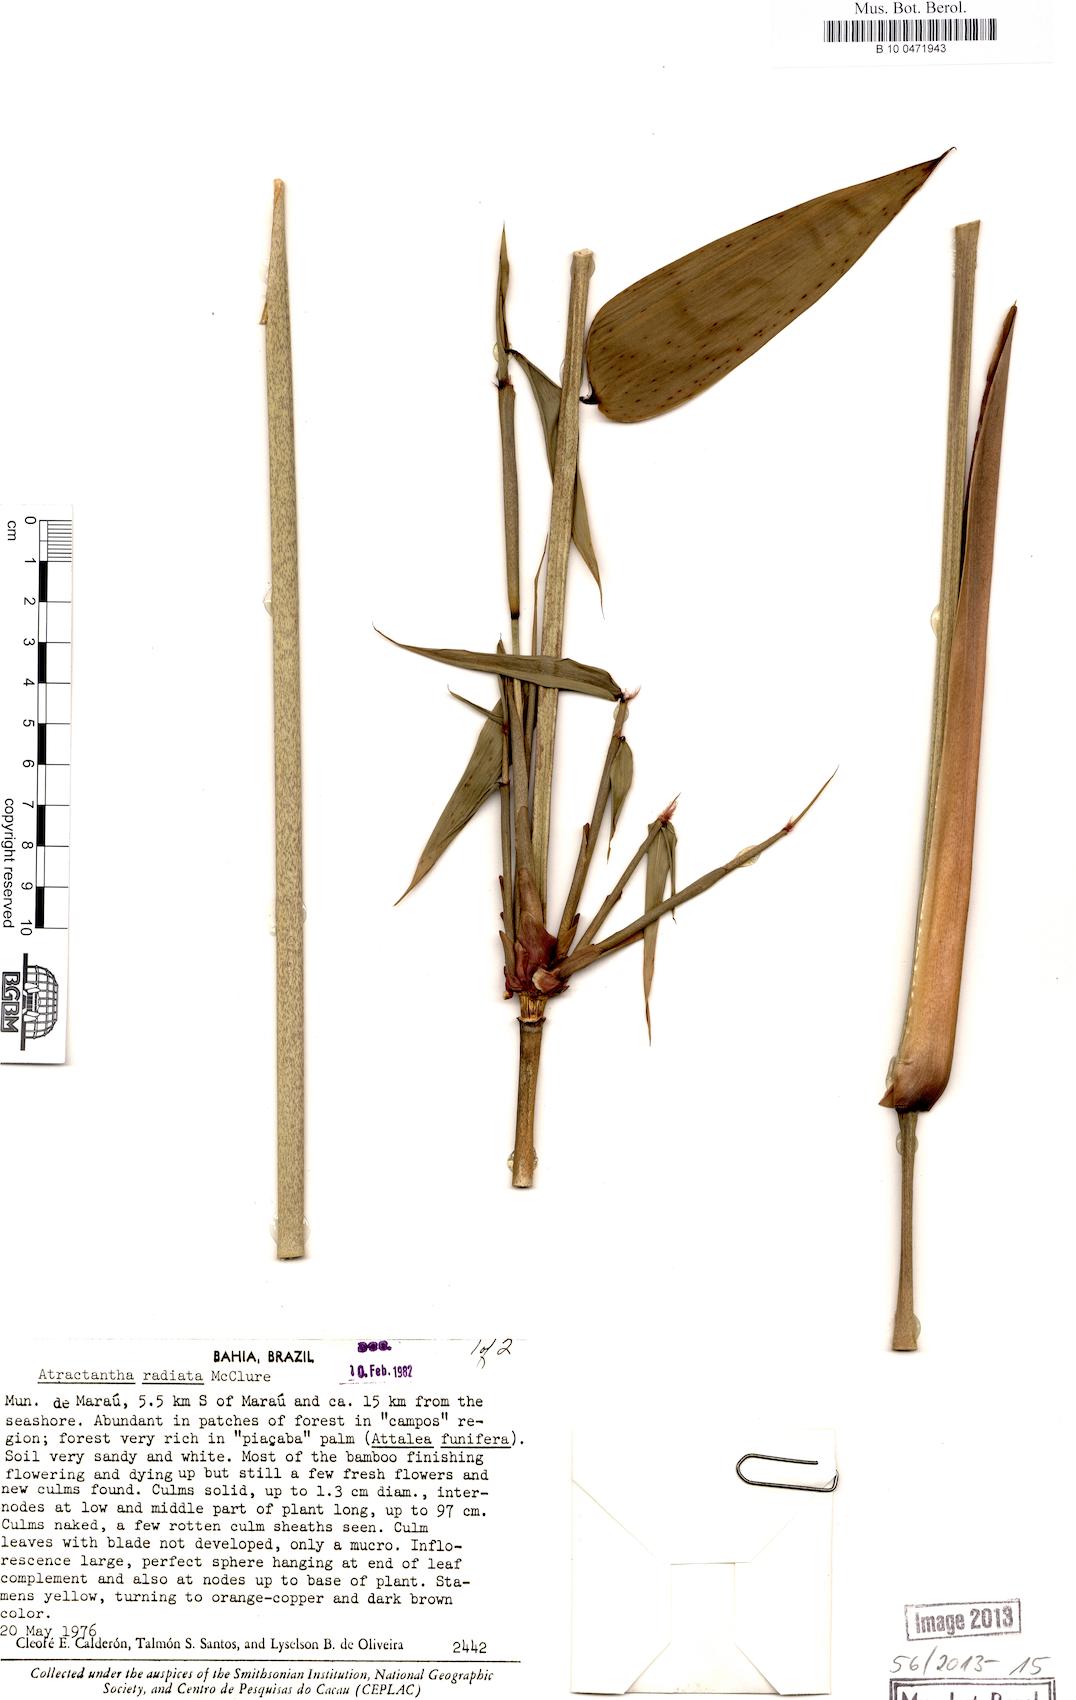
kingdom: Plantae
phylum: Tracheophyta
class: Liliopsida
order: Poales
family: Poaceae
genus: Atractantha
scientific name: Atractantha radiata
